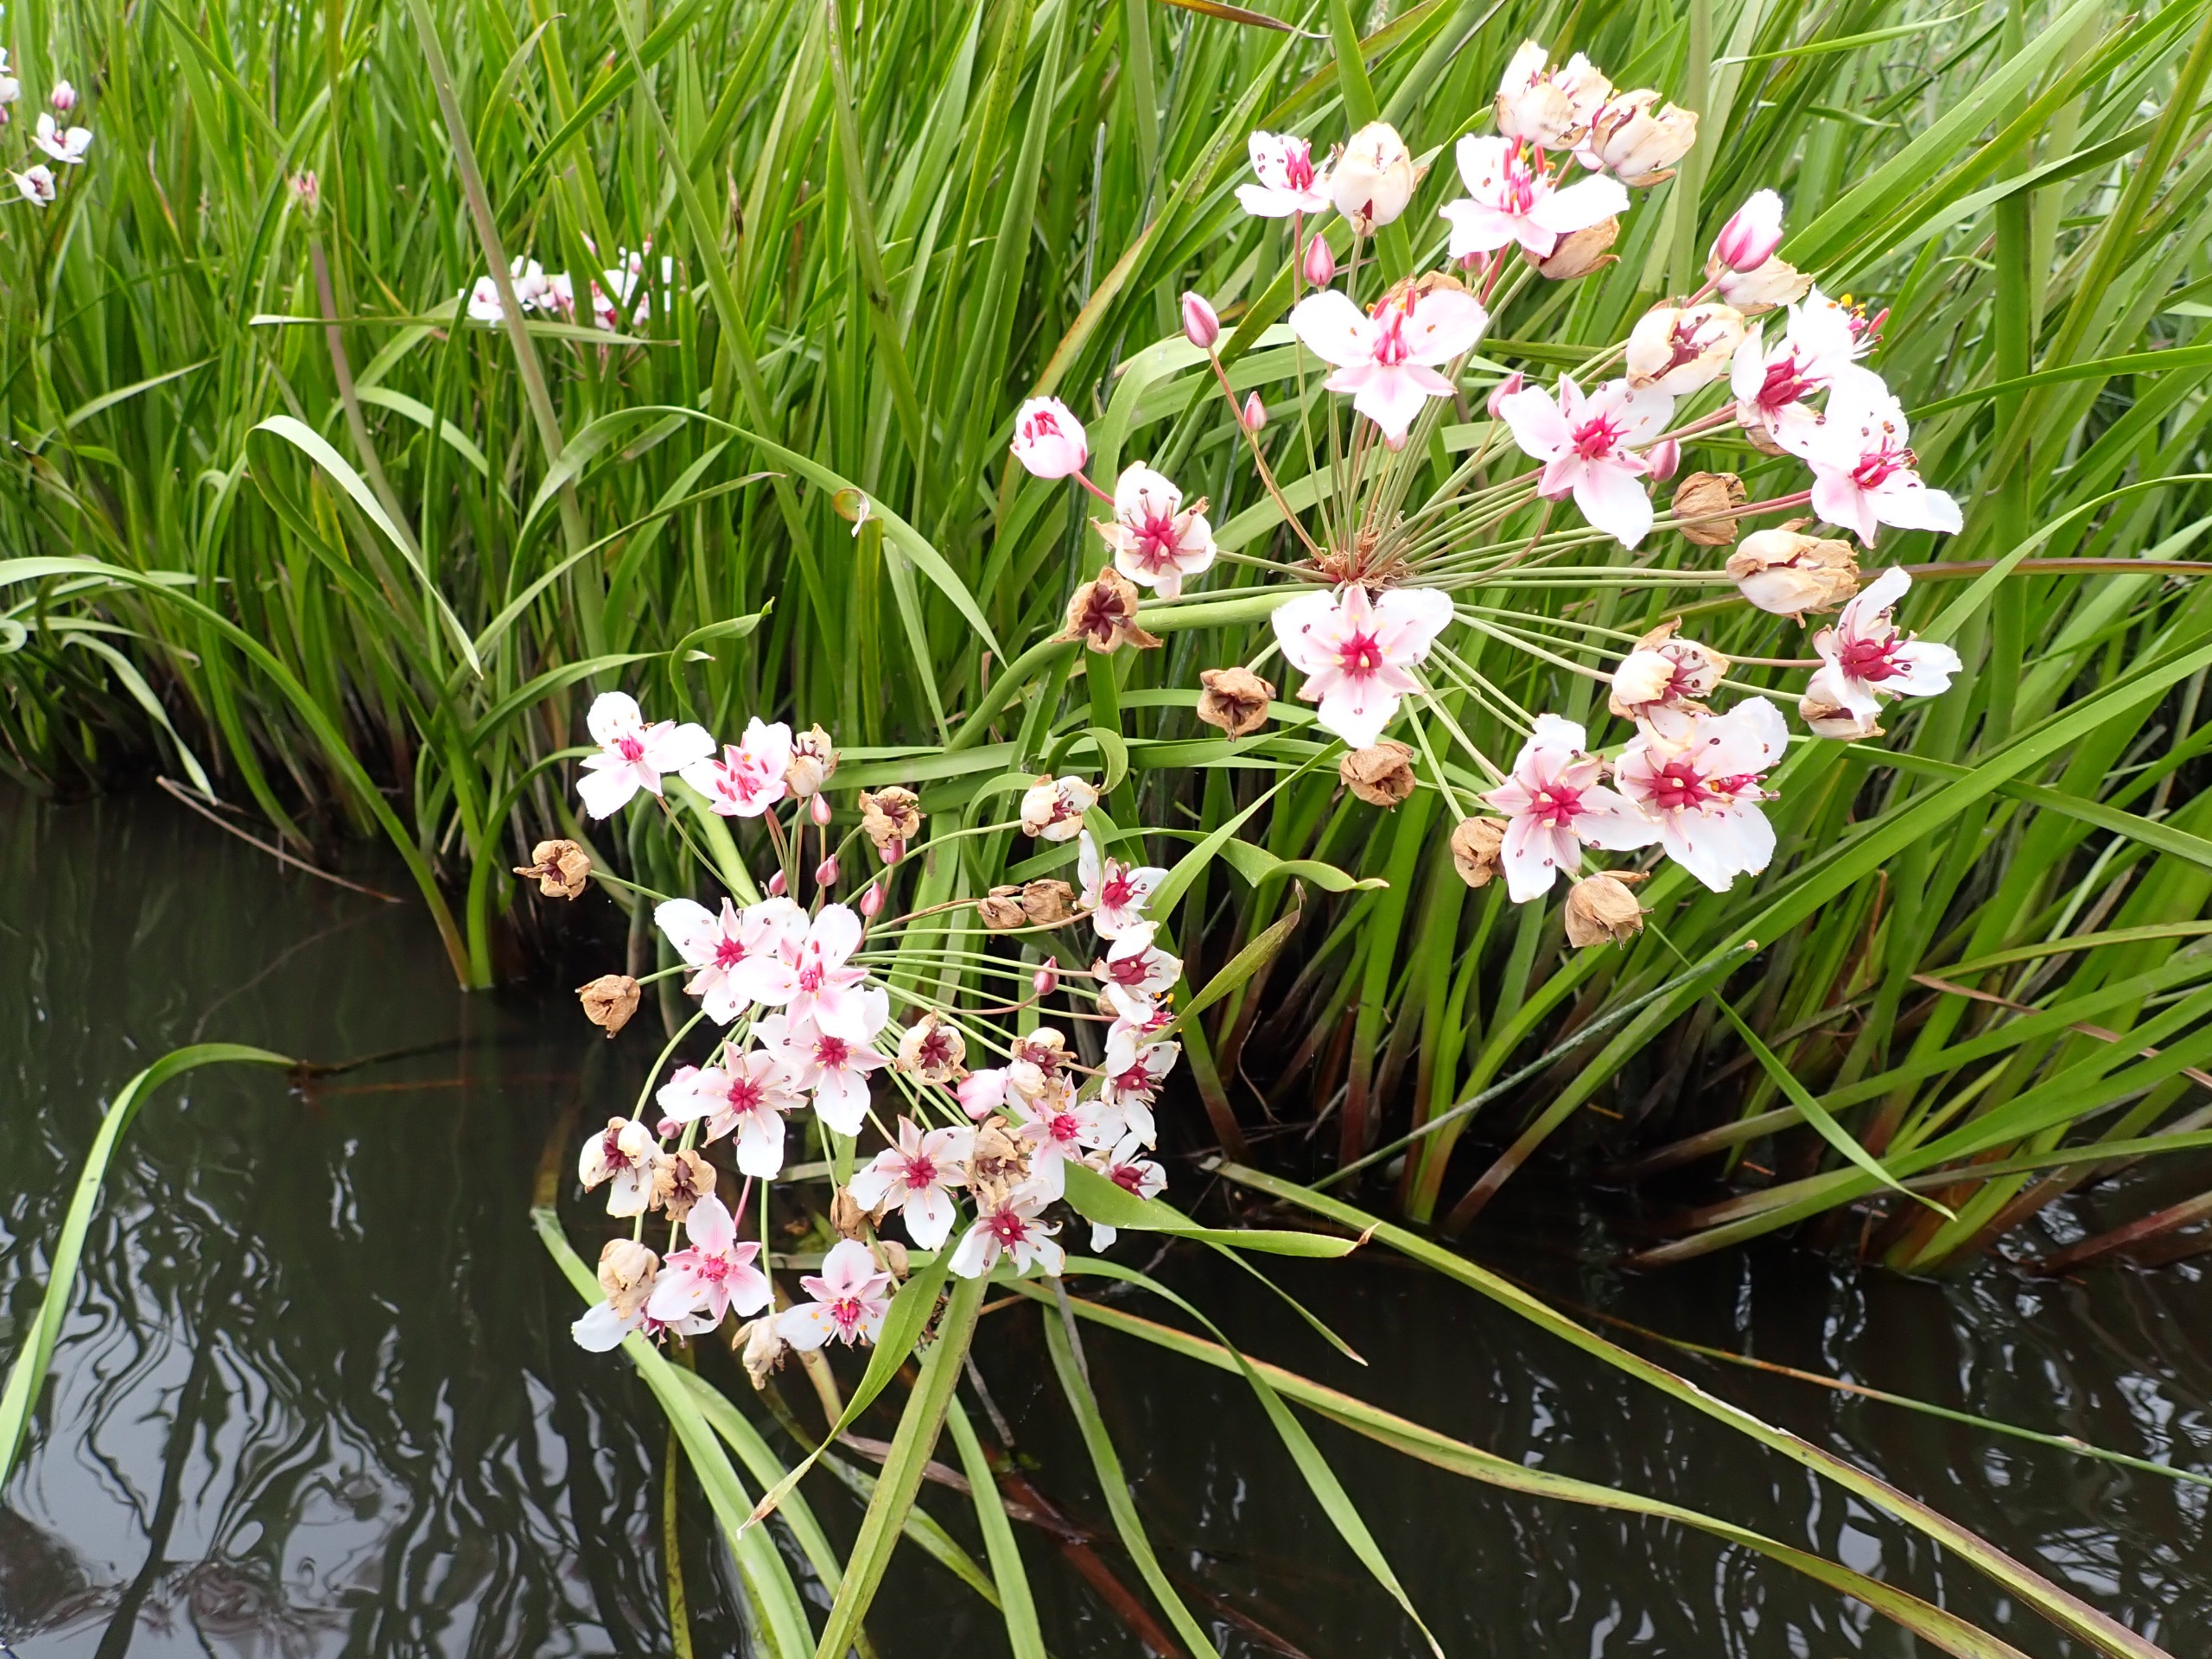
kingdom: Plantae
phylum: Tracheophyta
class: Liliopsida
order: Alismatales
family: Butomaceae
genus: Butomus
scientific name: Butomus umbellatus
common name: Brudelys
